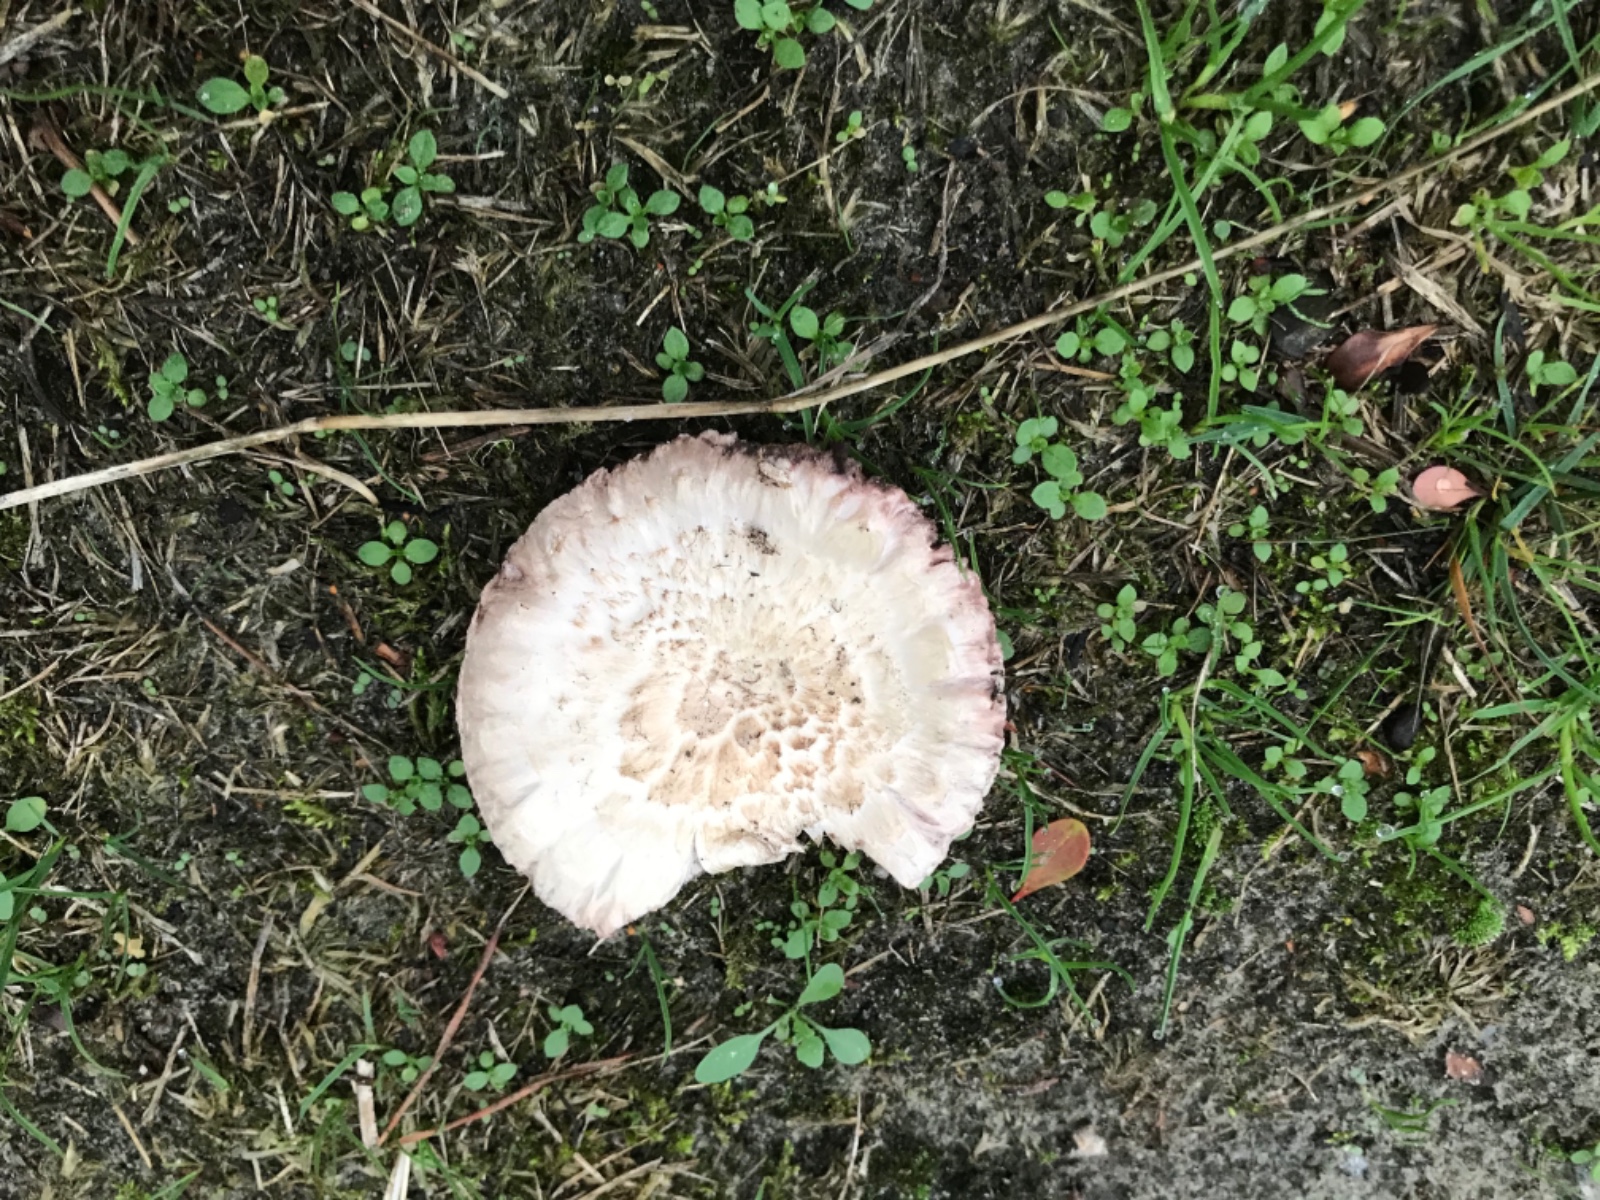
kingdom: Fungi
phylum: Basidiomycota
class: Agaricomycetes
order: Agaricales
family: Agaricaceae
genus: Agaricus
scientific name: Agaricus bernardii
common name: strandengs-champignon
